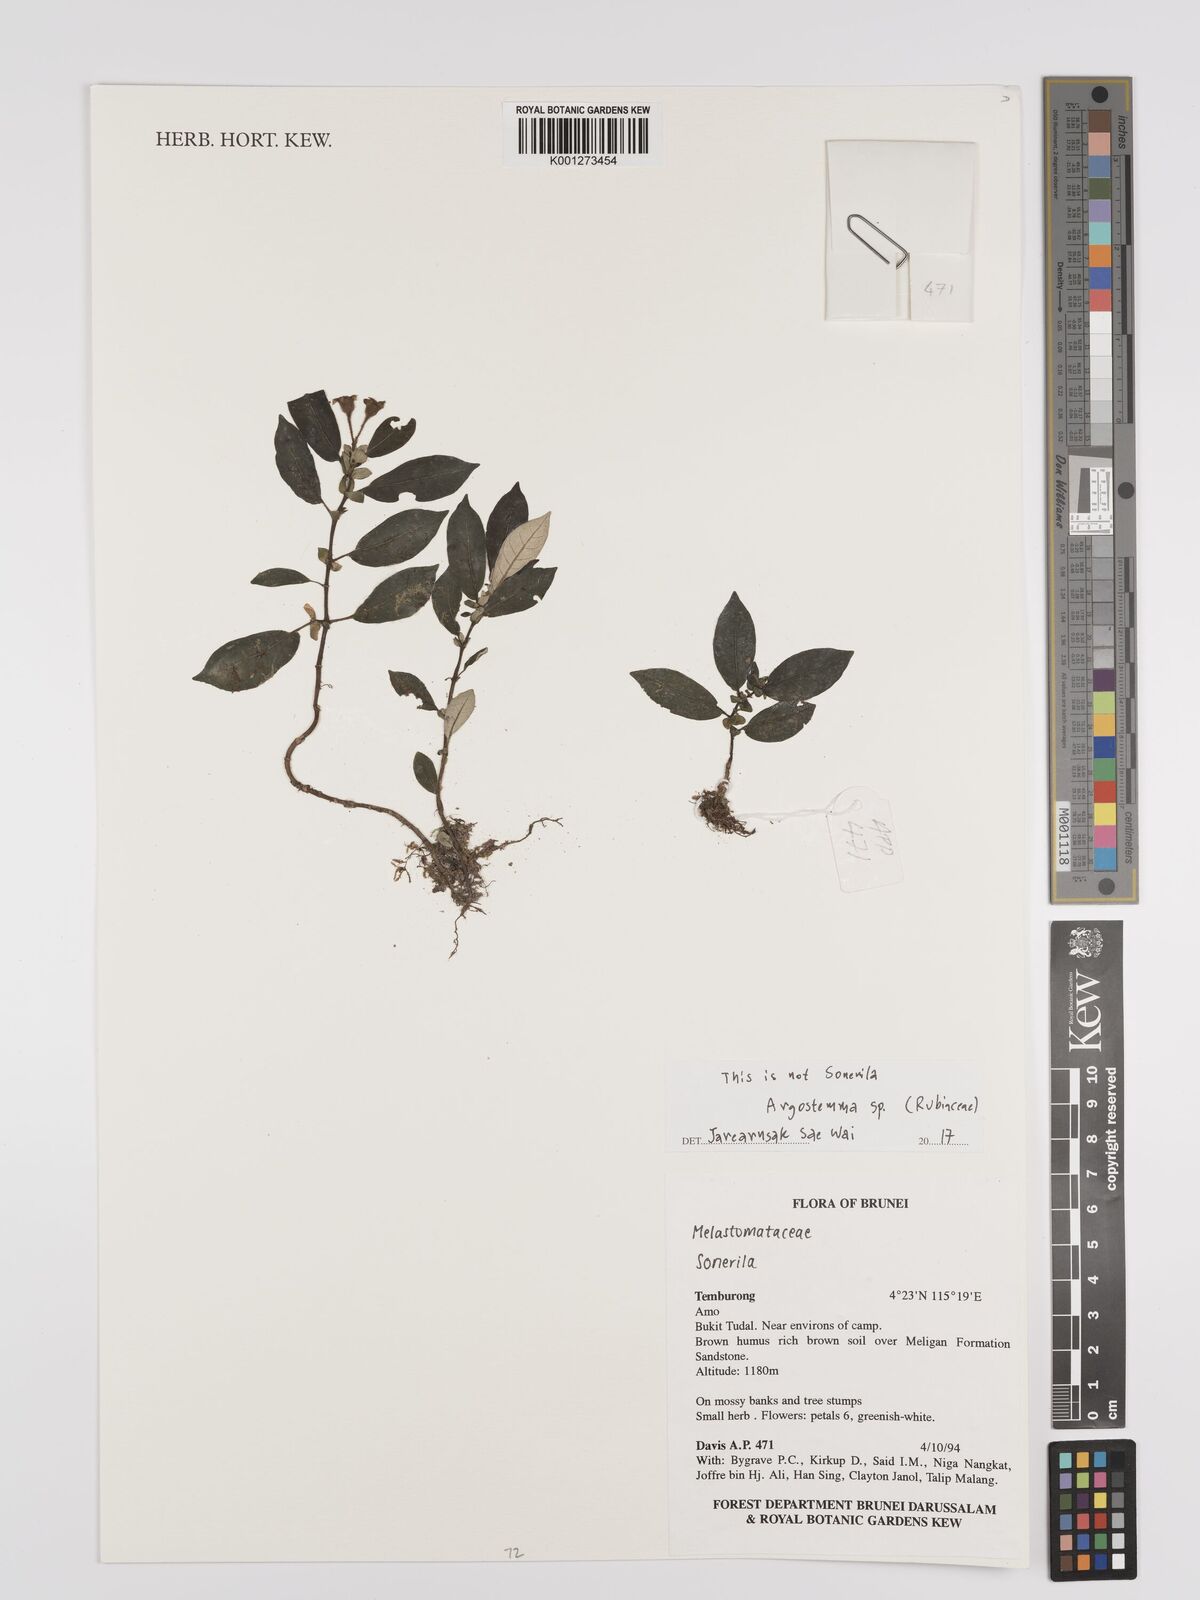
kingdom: Plantae
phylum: Tracheophyta
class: Magnoliopsida
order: Gentianales
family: Rubiaceae
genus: Argostemma
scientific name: Argostemma
